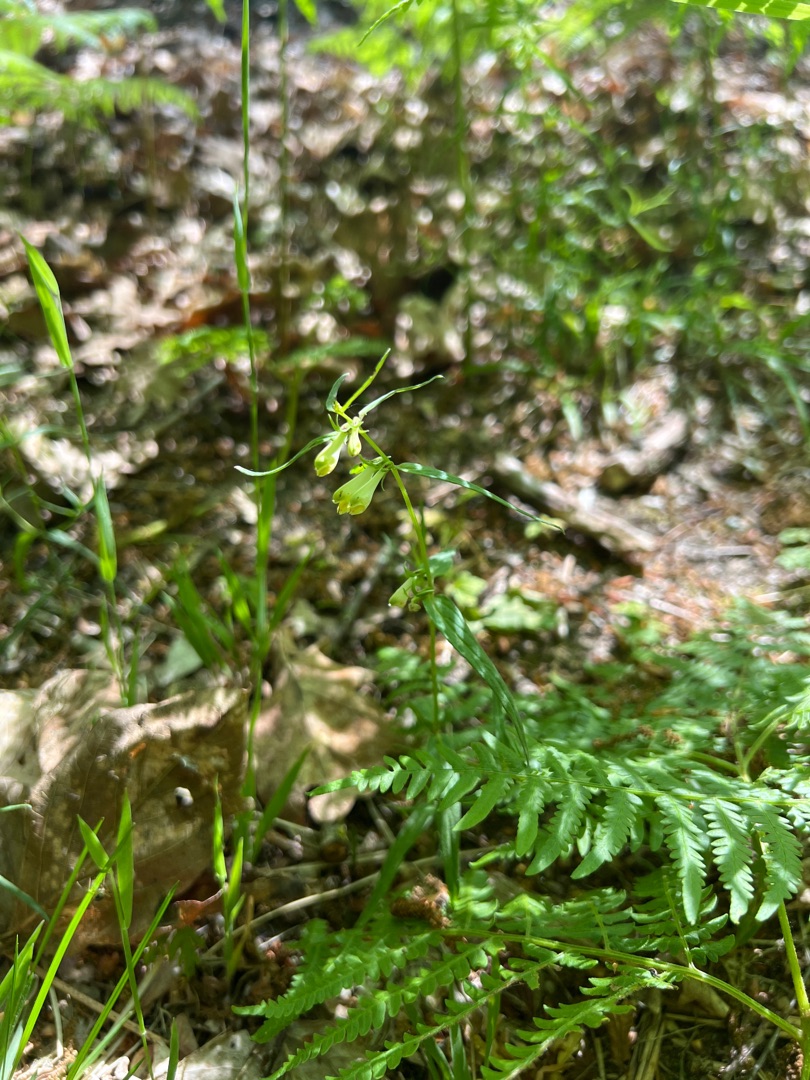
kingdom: Plantae
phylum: Tracheophyta
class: Magnoliopsida
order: Lamiales
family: Orobanchaceae
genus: Melampyrum
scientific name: Melampyrum pratense
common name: Almindelig kohvede
